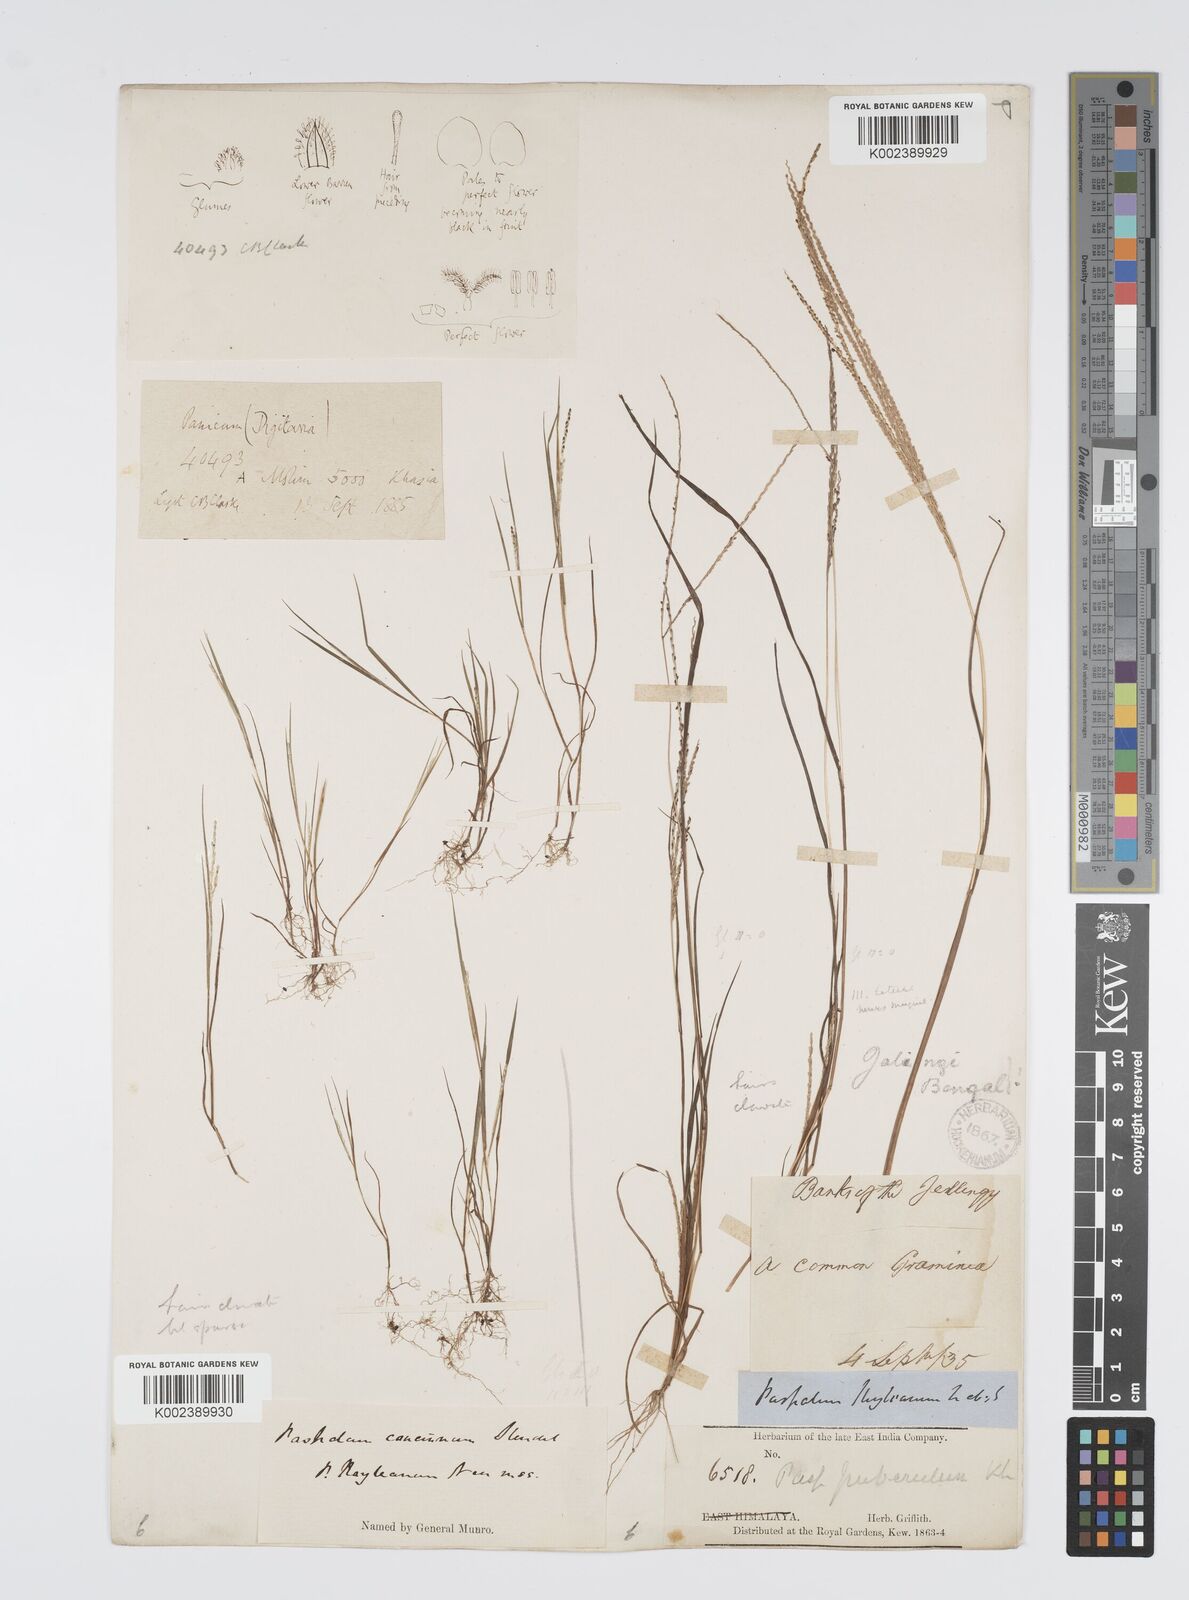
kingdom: Plantae
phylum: Tracheophyta
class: Liliopsida
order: Poales
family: Poaceae
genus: Digitaria
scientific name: Digitaria stricta
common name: Crabgrass
